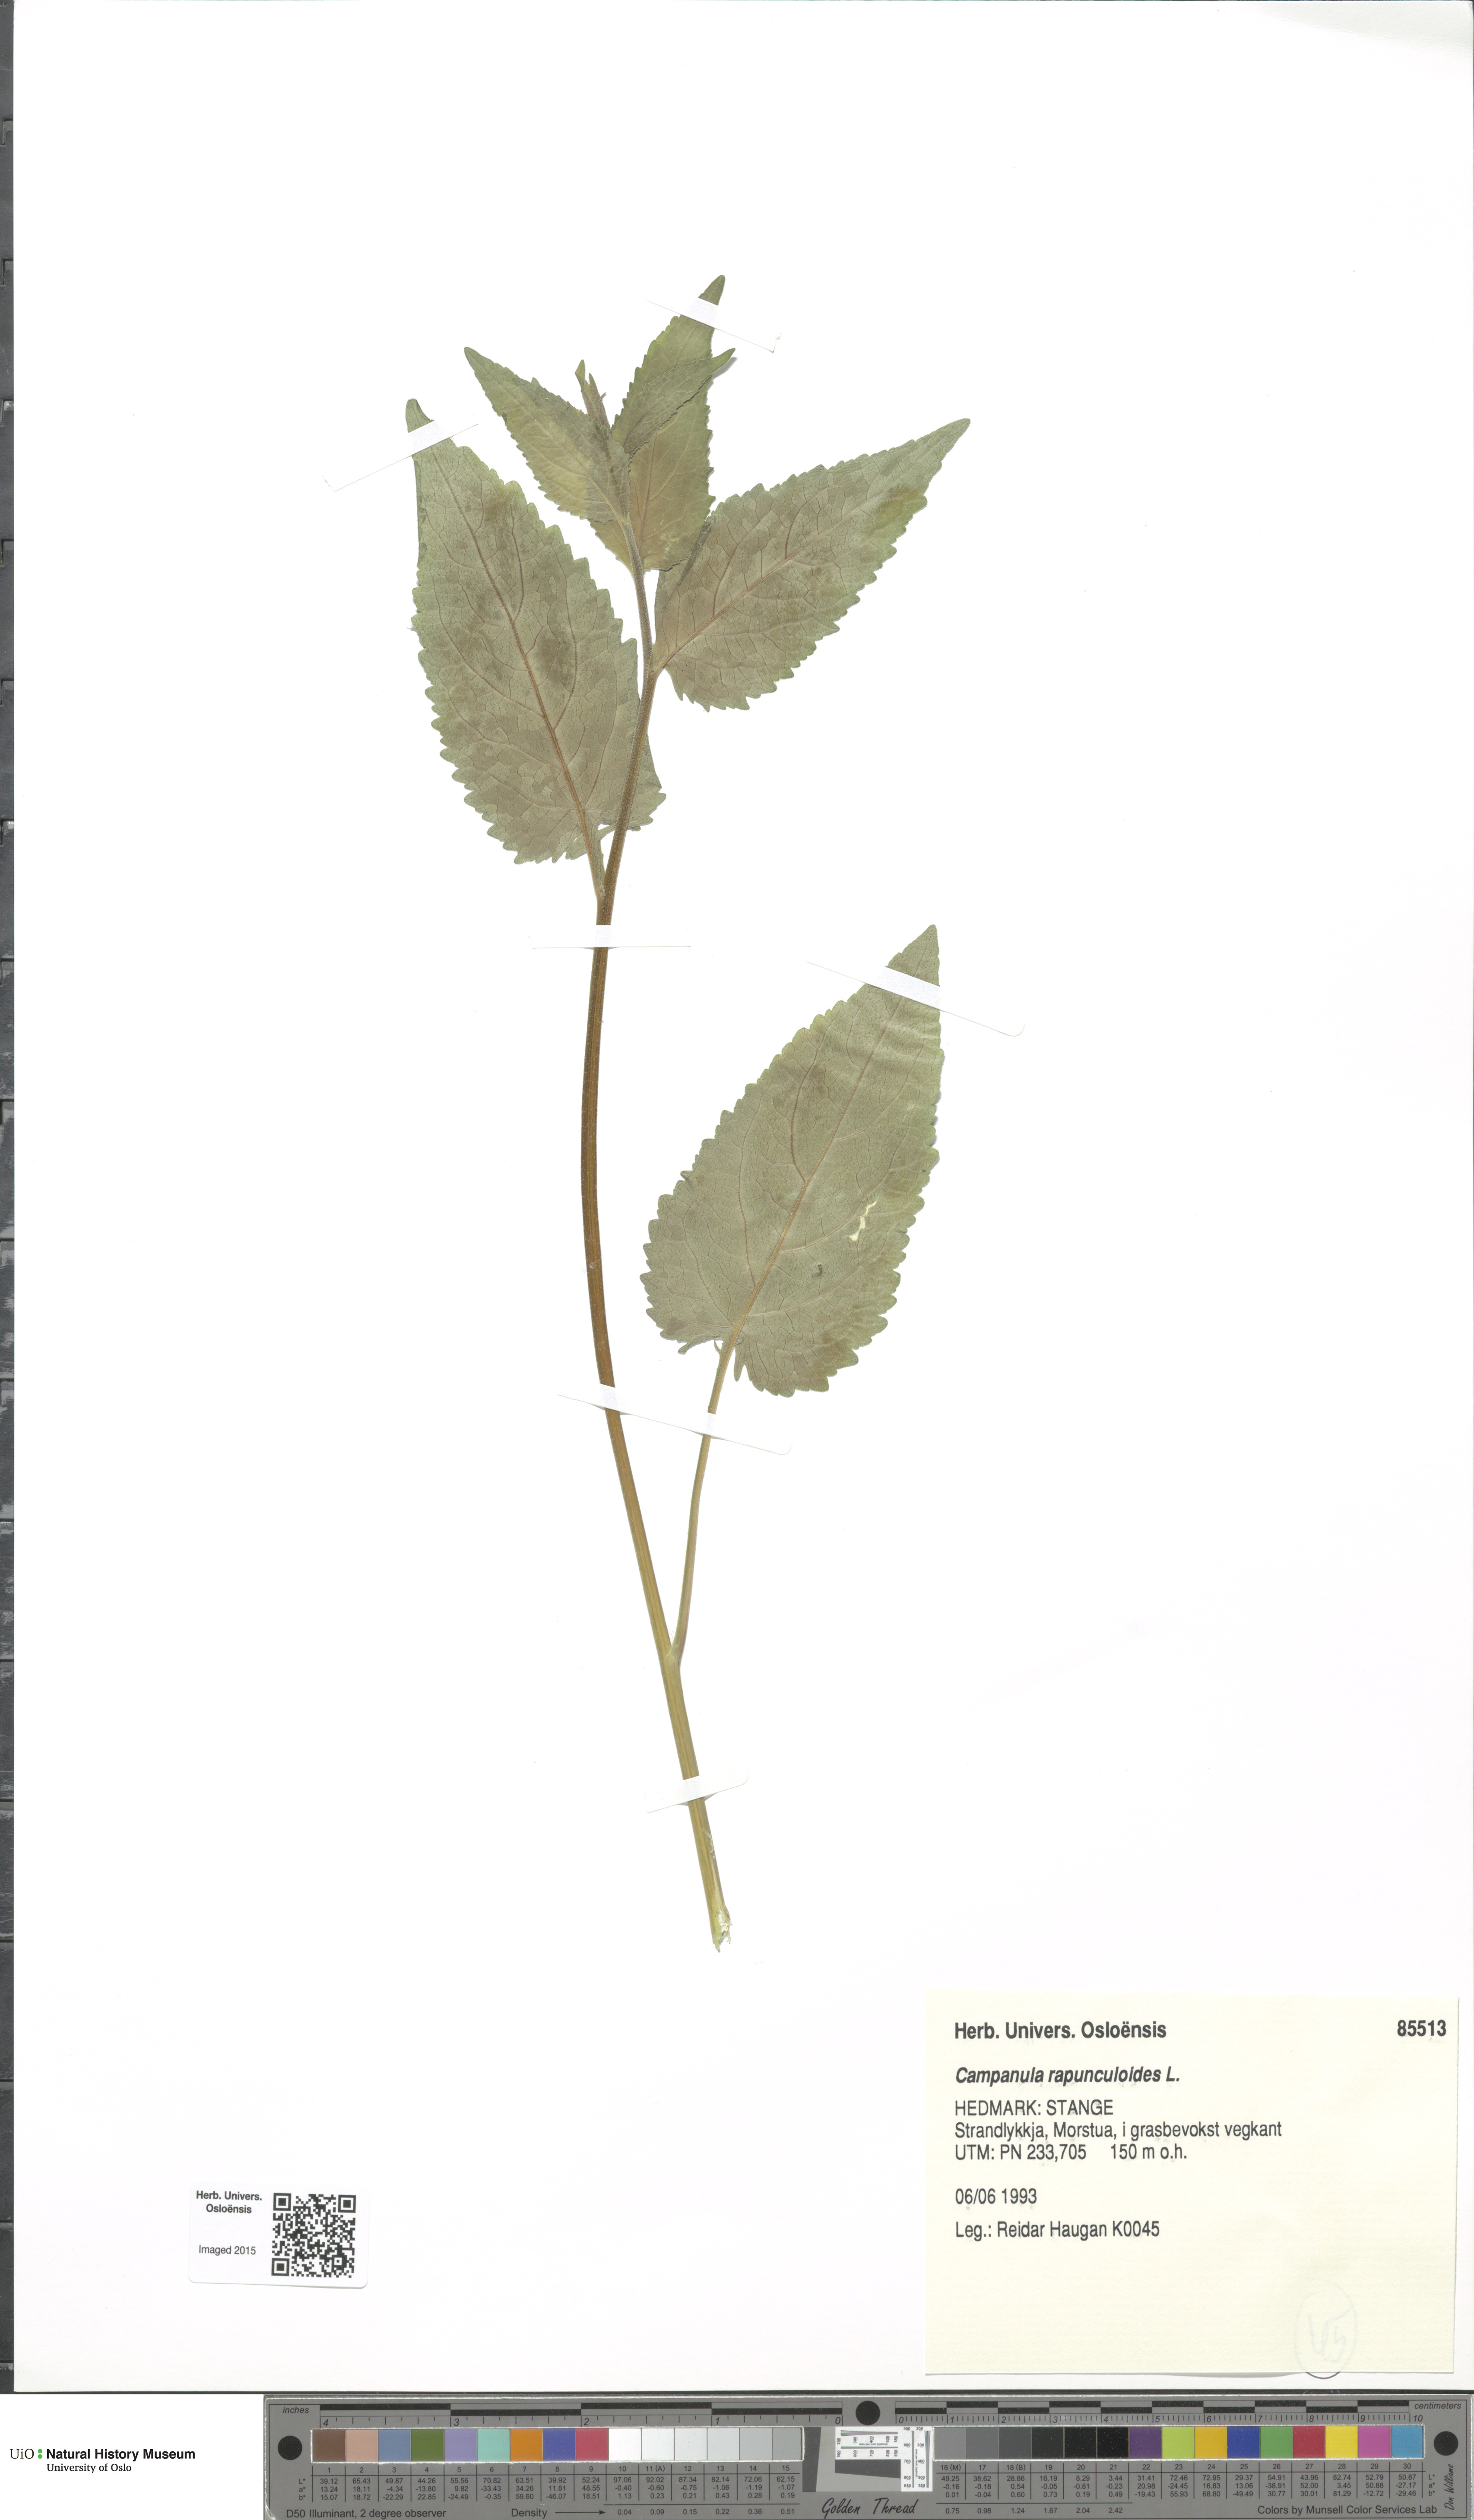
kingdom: Plantae
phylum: Tracheophyta
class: Magnoliopsida
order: Asterales
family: Campanulaceae
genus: Campanula
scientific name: Campanula rapunculoides
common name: Creeping bellflower
